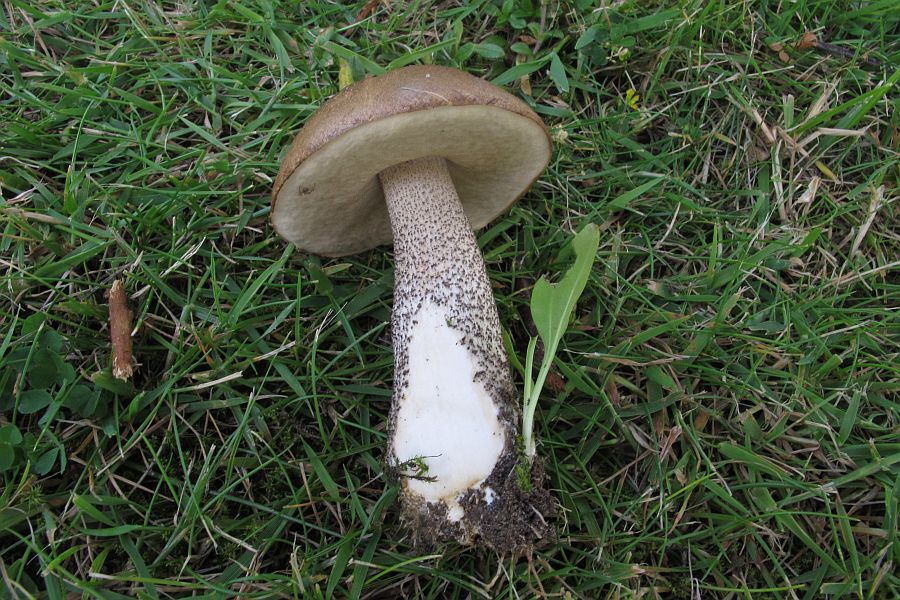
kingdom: Fungi
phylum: Basidiomycota
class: Agaricomycetes
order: Boletales
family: Boletaceae
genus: Leccinum
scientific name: Leccinum scabrum
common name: brun skælrørhat
